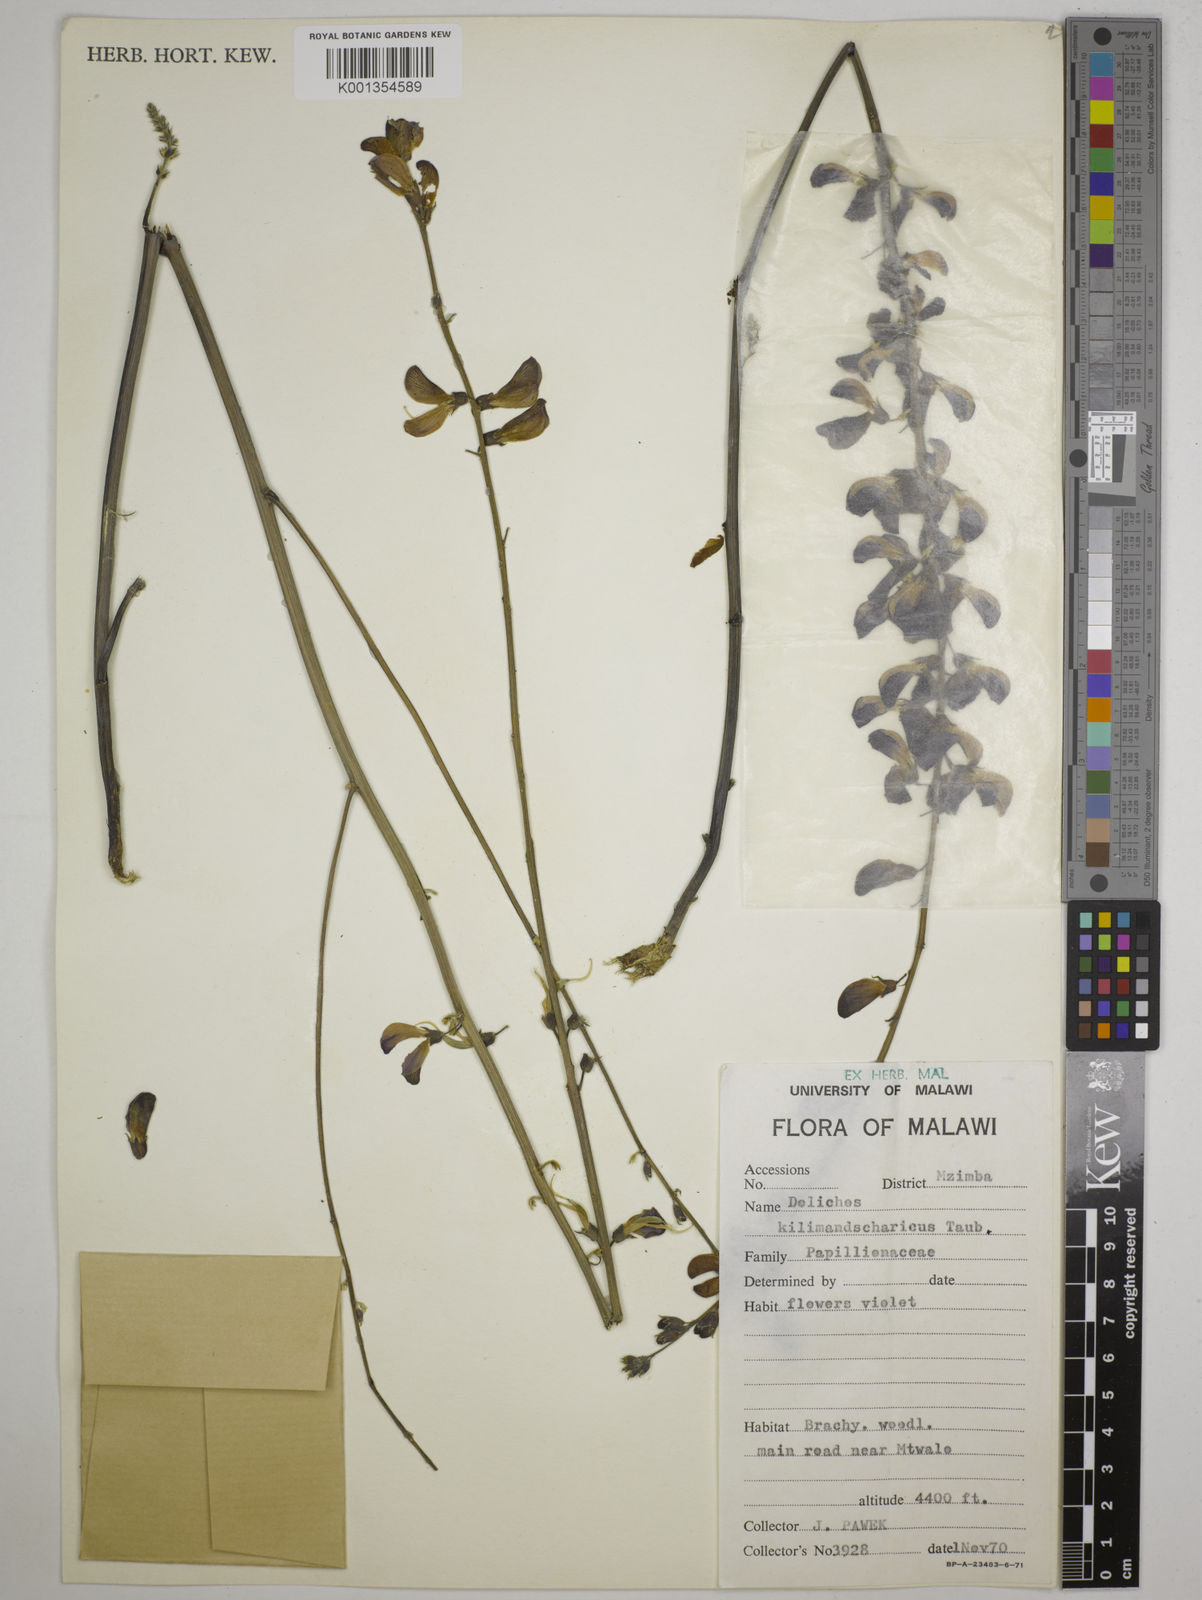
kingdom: Plantae
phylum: Tracheophyta
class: Magnoliopsida
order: Fabales
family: Fabaceae
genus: Dolichos
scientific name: Dolichos kilimandscharicus
